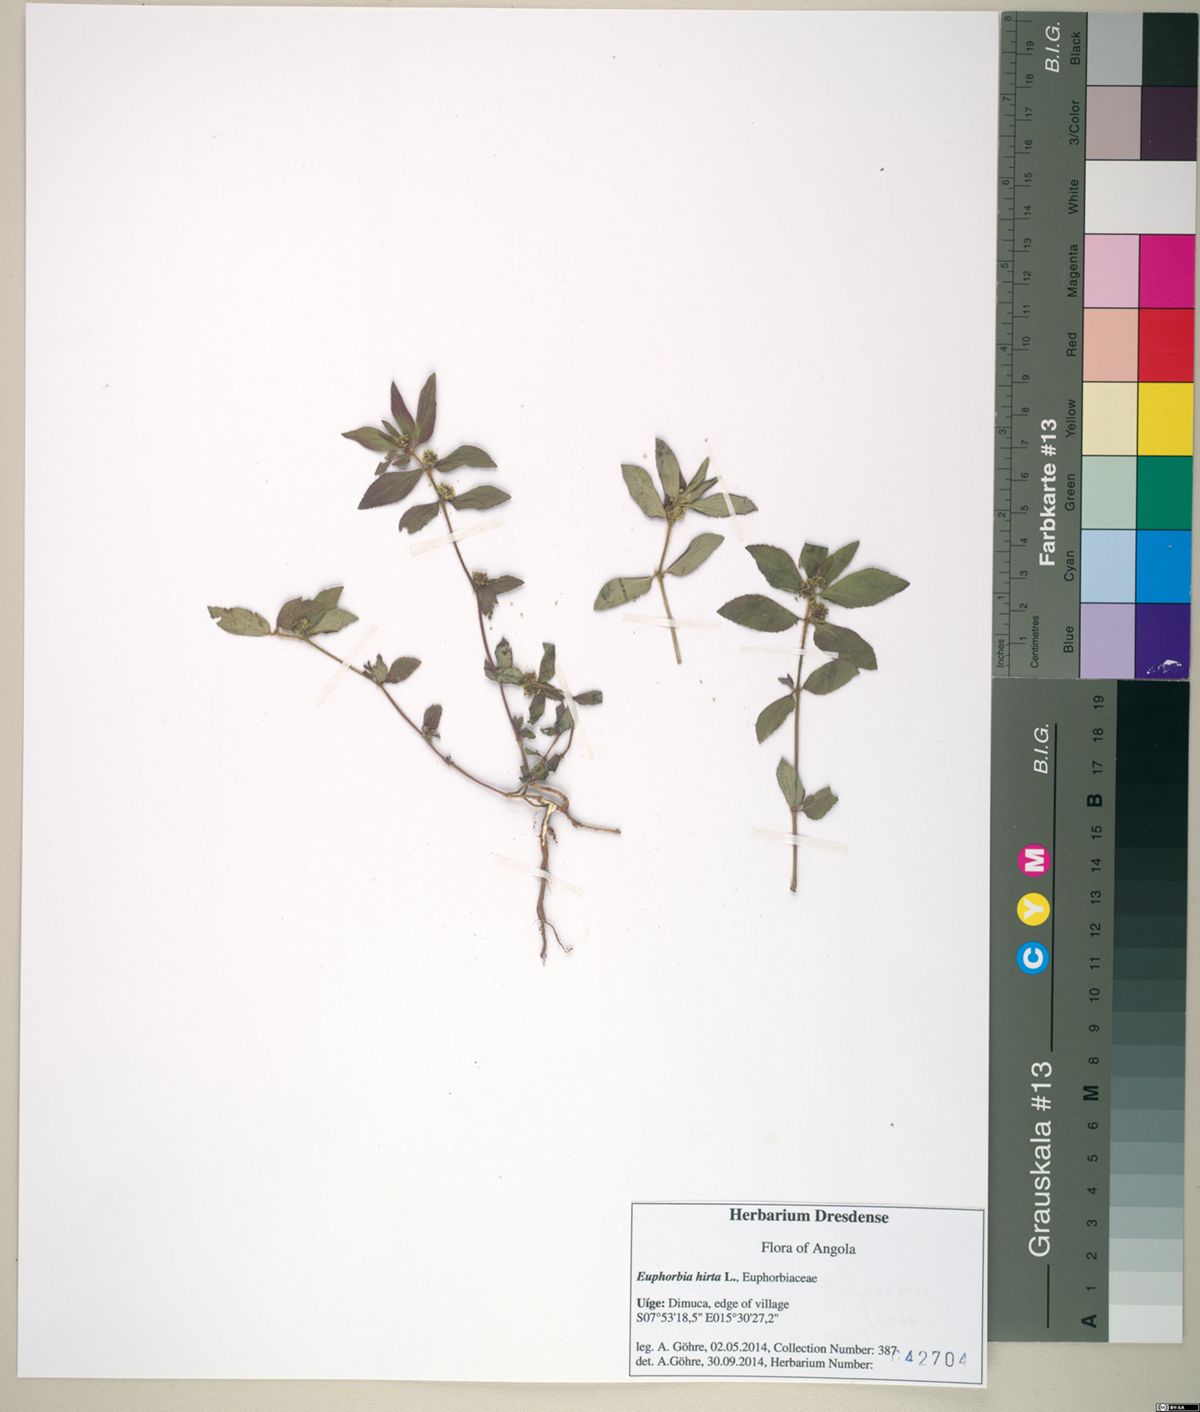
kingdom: Plantae
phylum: Tracheophyta
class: Magnoliopsida
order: Malpighiales
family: Euphorbiaceae
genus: Euphorbia
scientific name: Euphorbia hirta
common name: Pillpod sandmat
